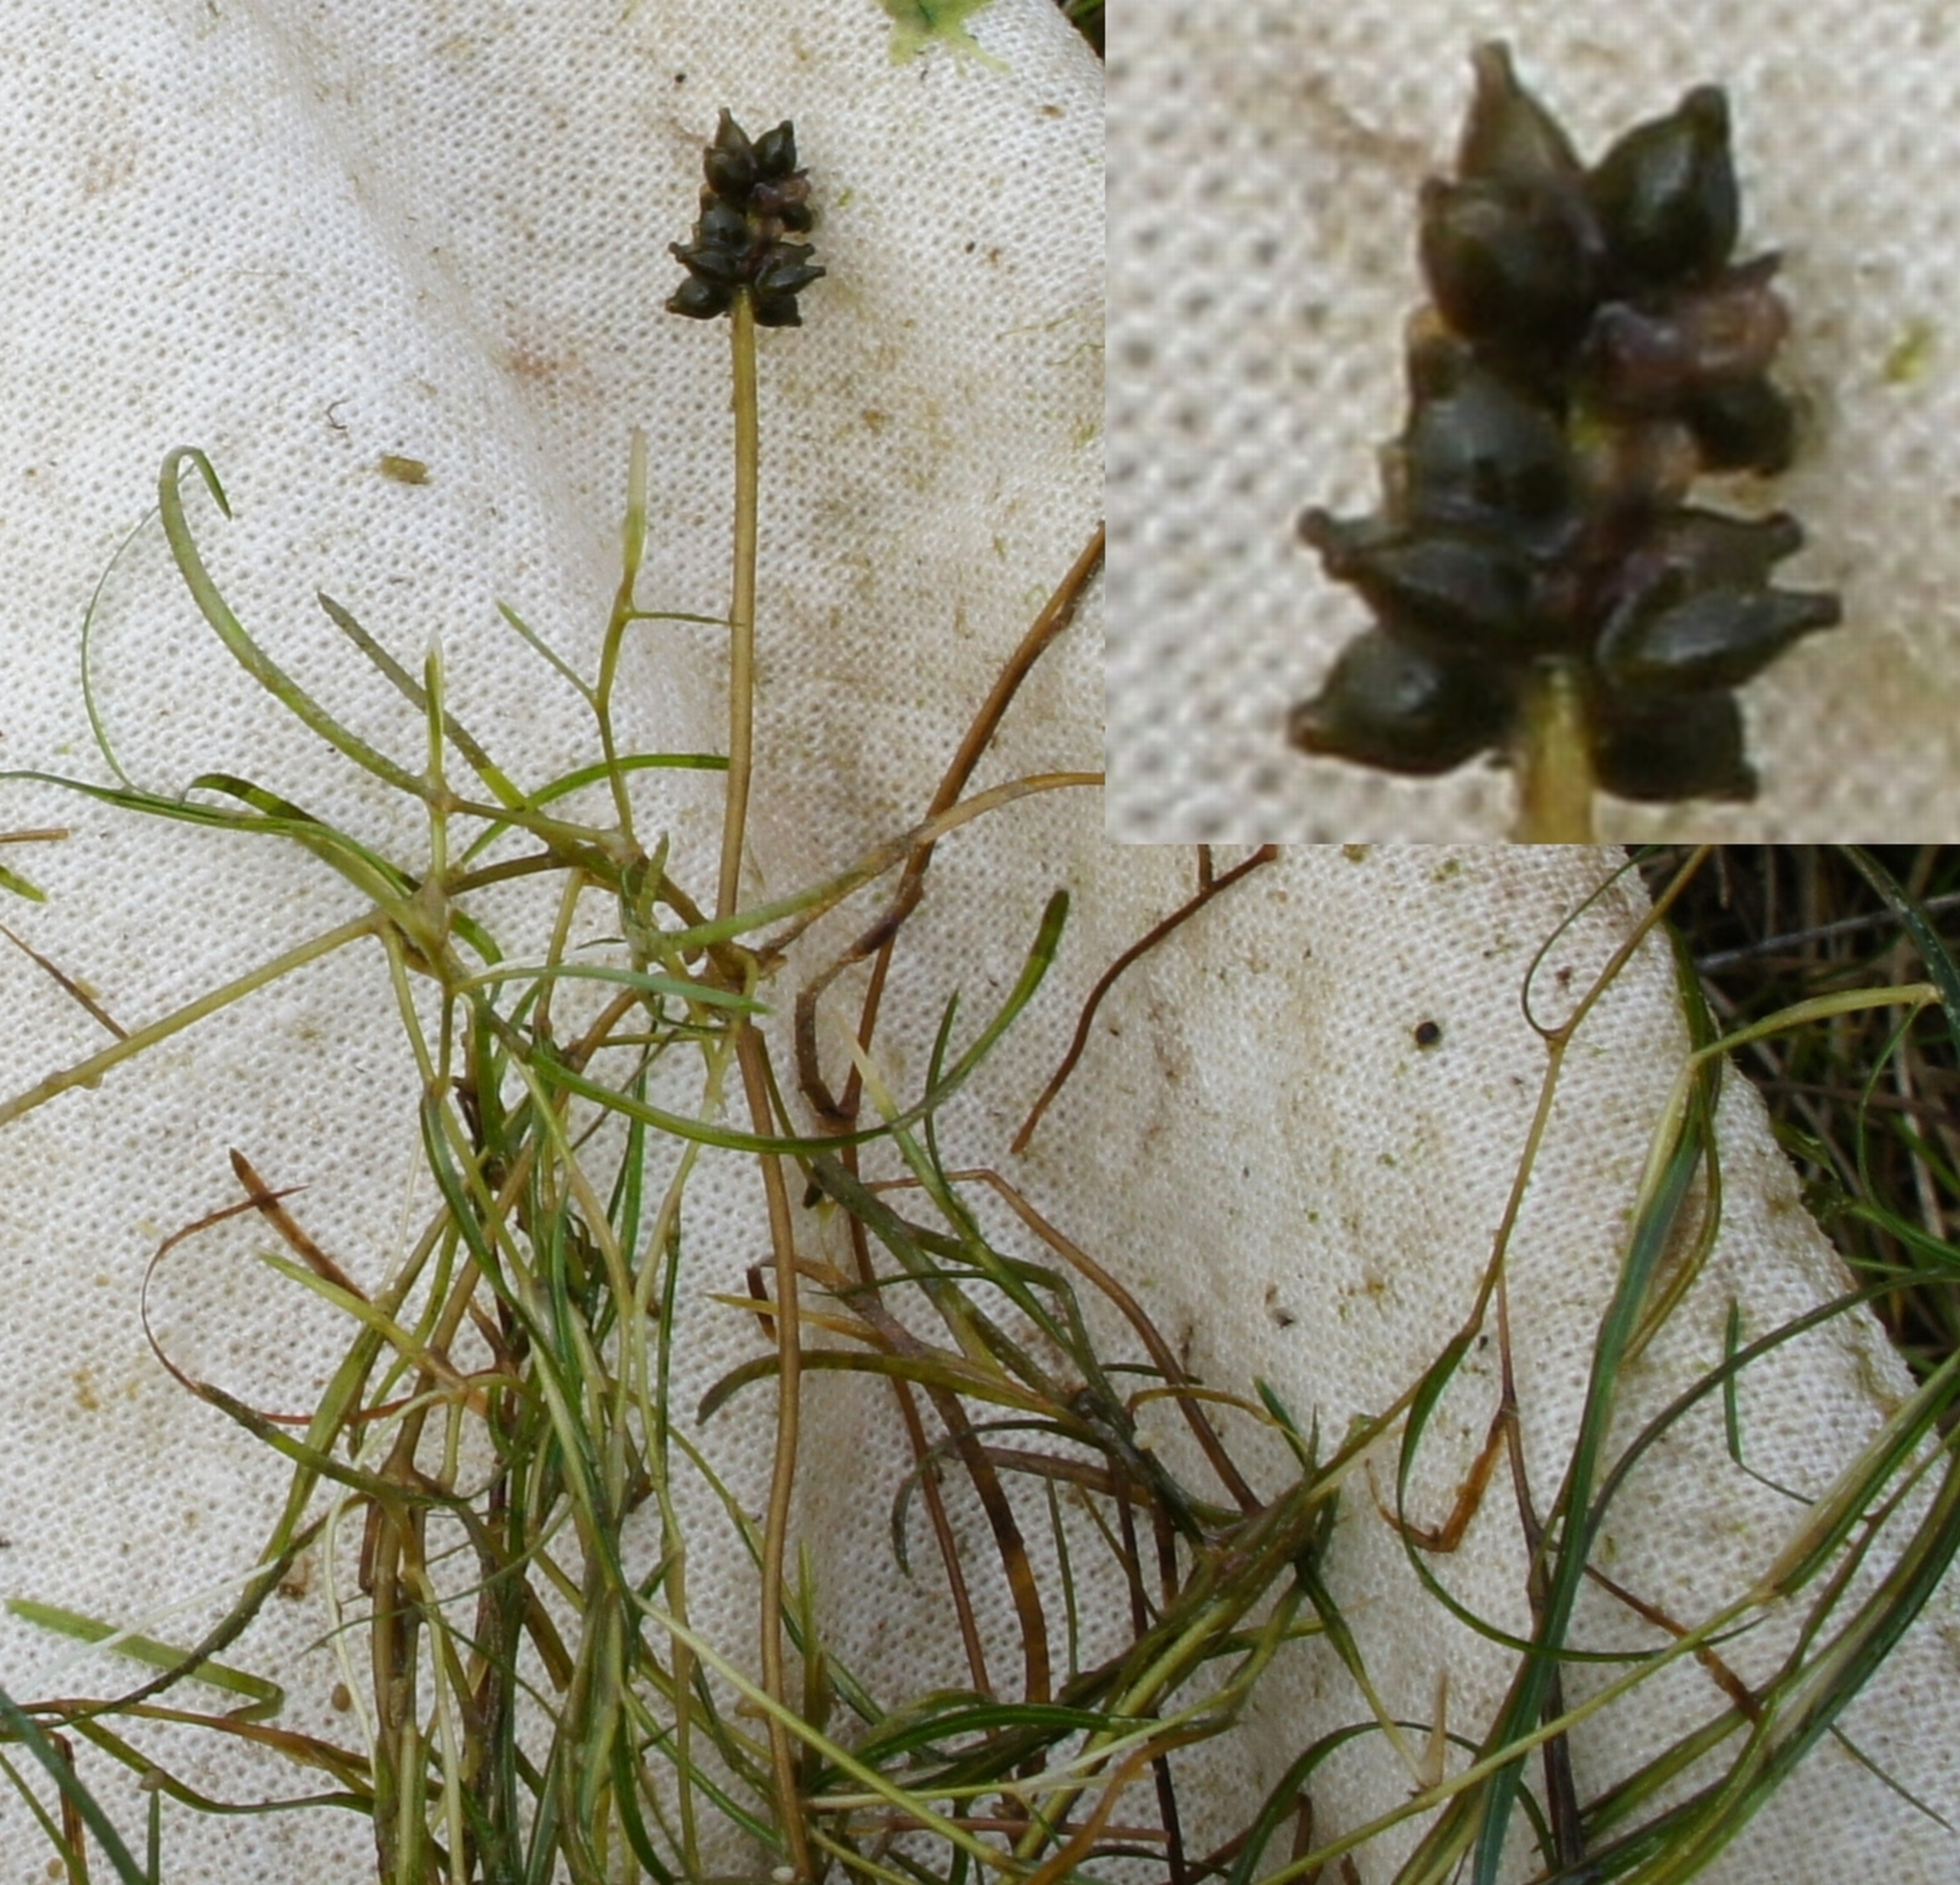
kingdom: Plantae
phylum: Tracheophyta
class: Liliopsida
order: Alismatales
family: Potamogetonaceae
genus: Potamogeton
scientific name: Potamogeton pusillus
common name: Spinkel vandaks
